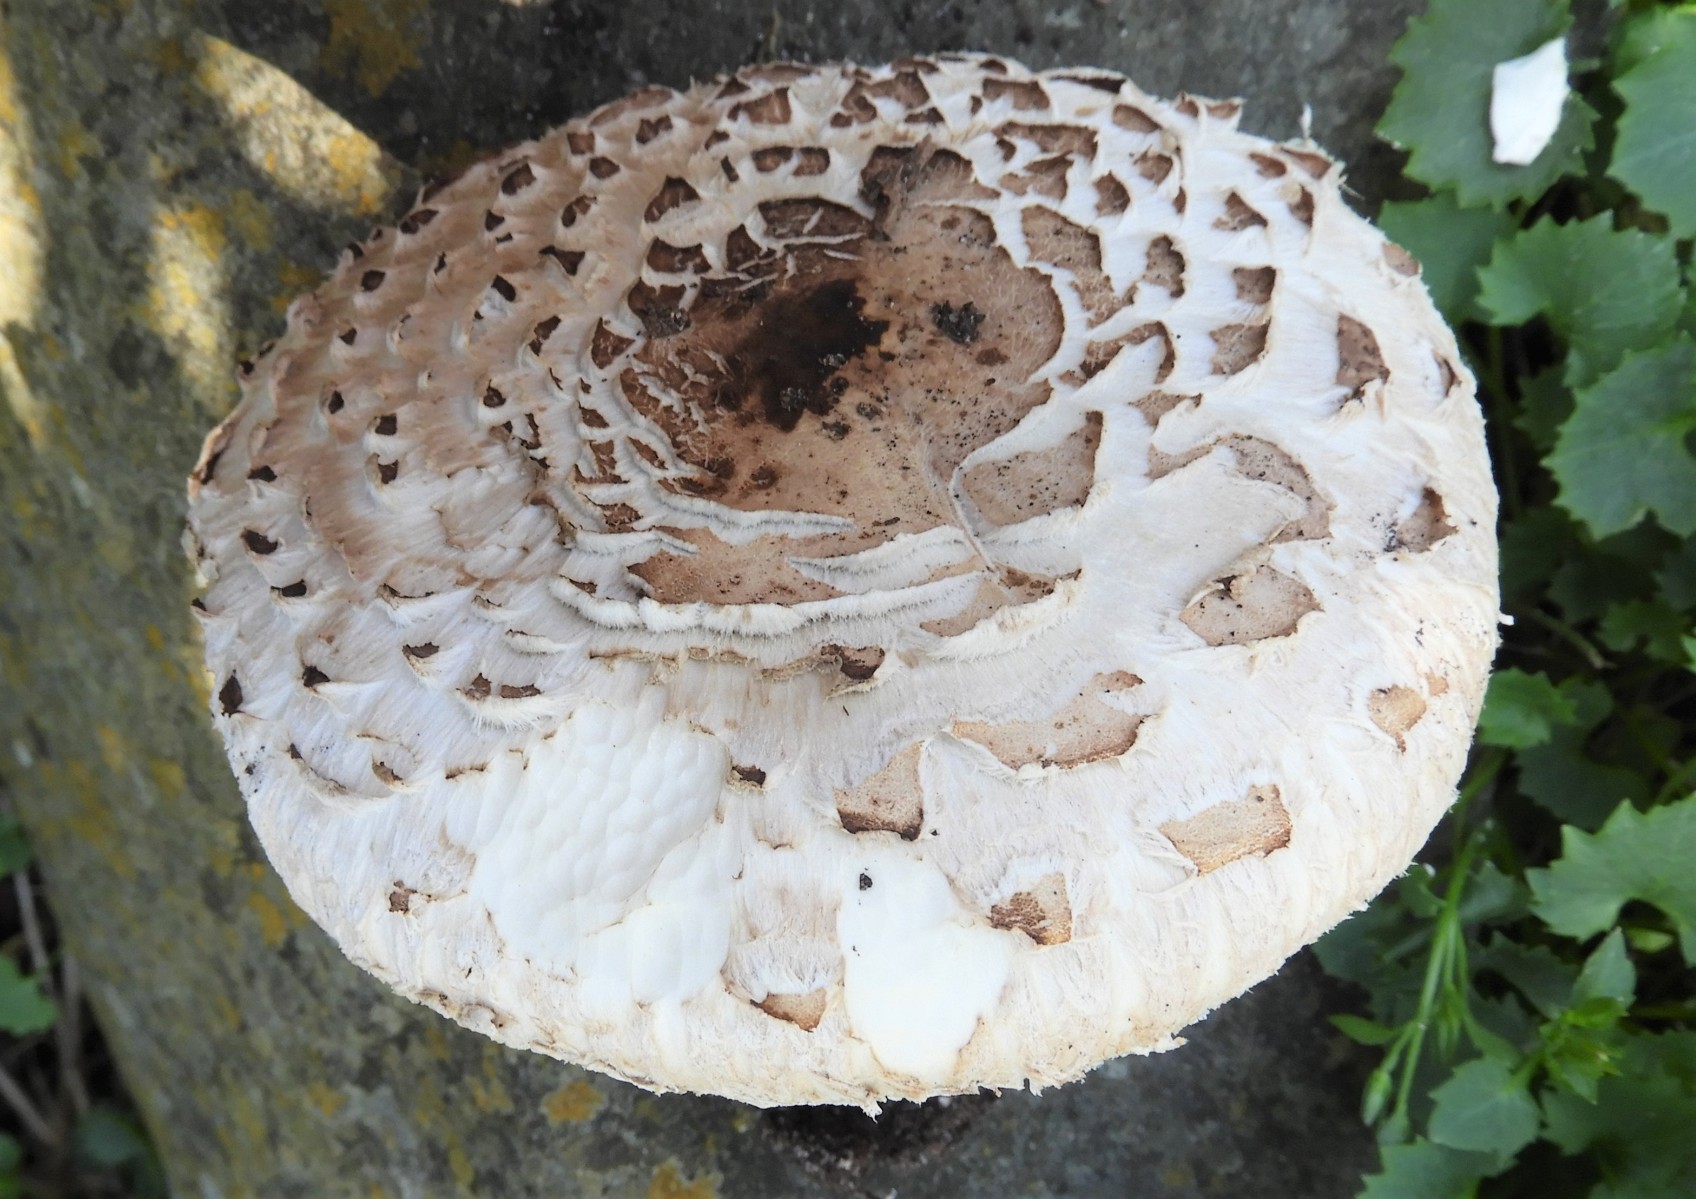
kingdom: Fungi
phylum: Basidiomycota
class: Agaricomycetes
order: Agaricales
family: Agaricaceae
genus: Chlorophyllum
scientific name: Chlorophyllum brunneum
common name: giftig rabarberhat
